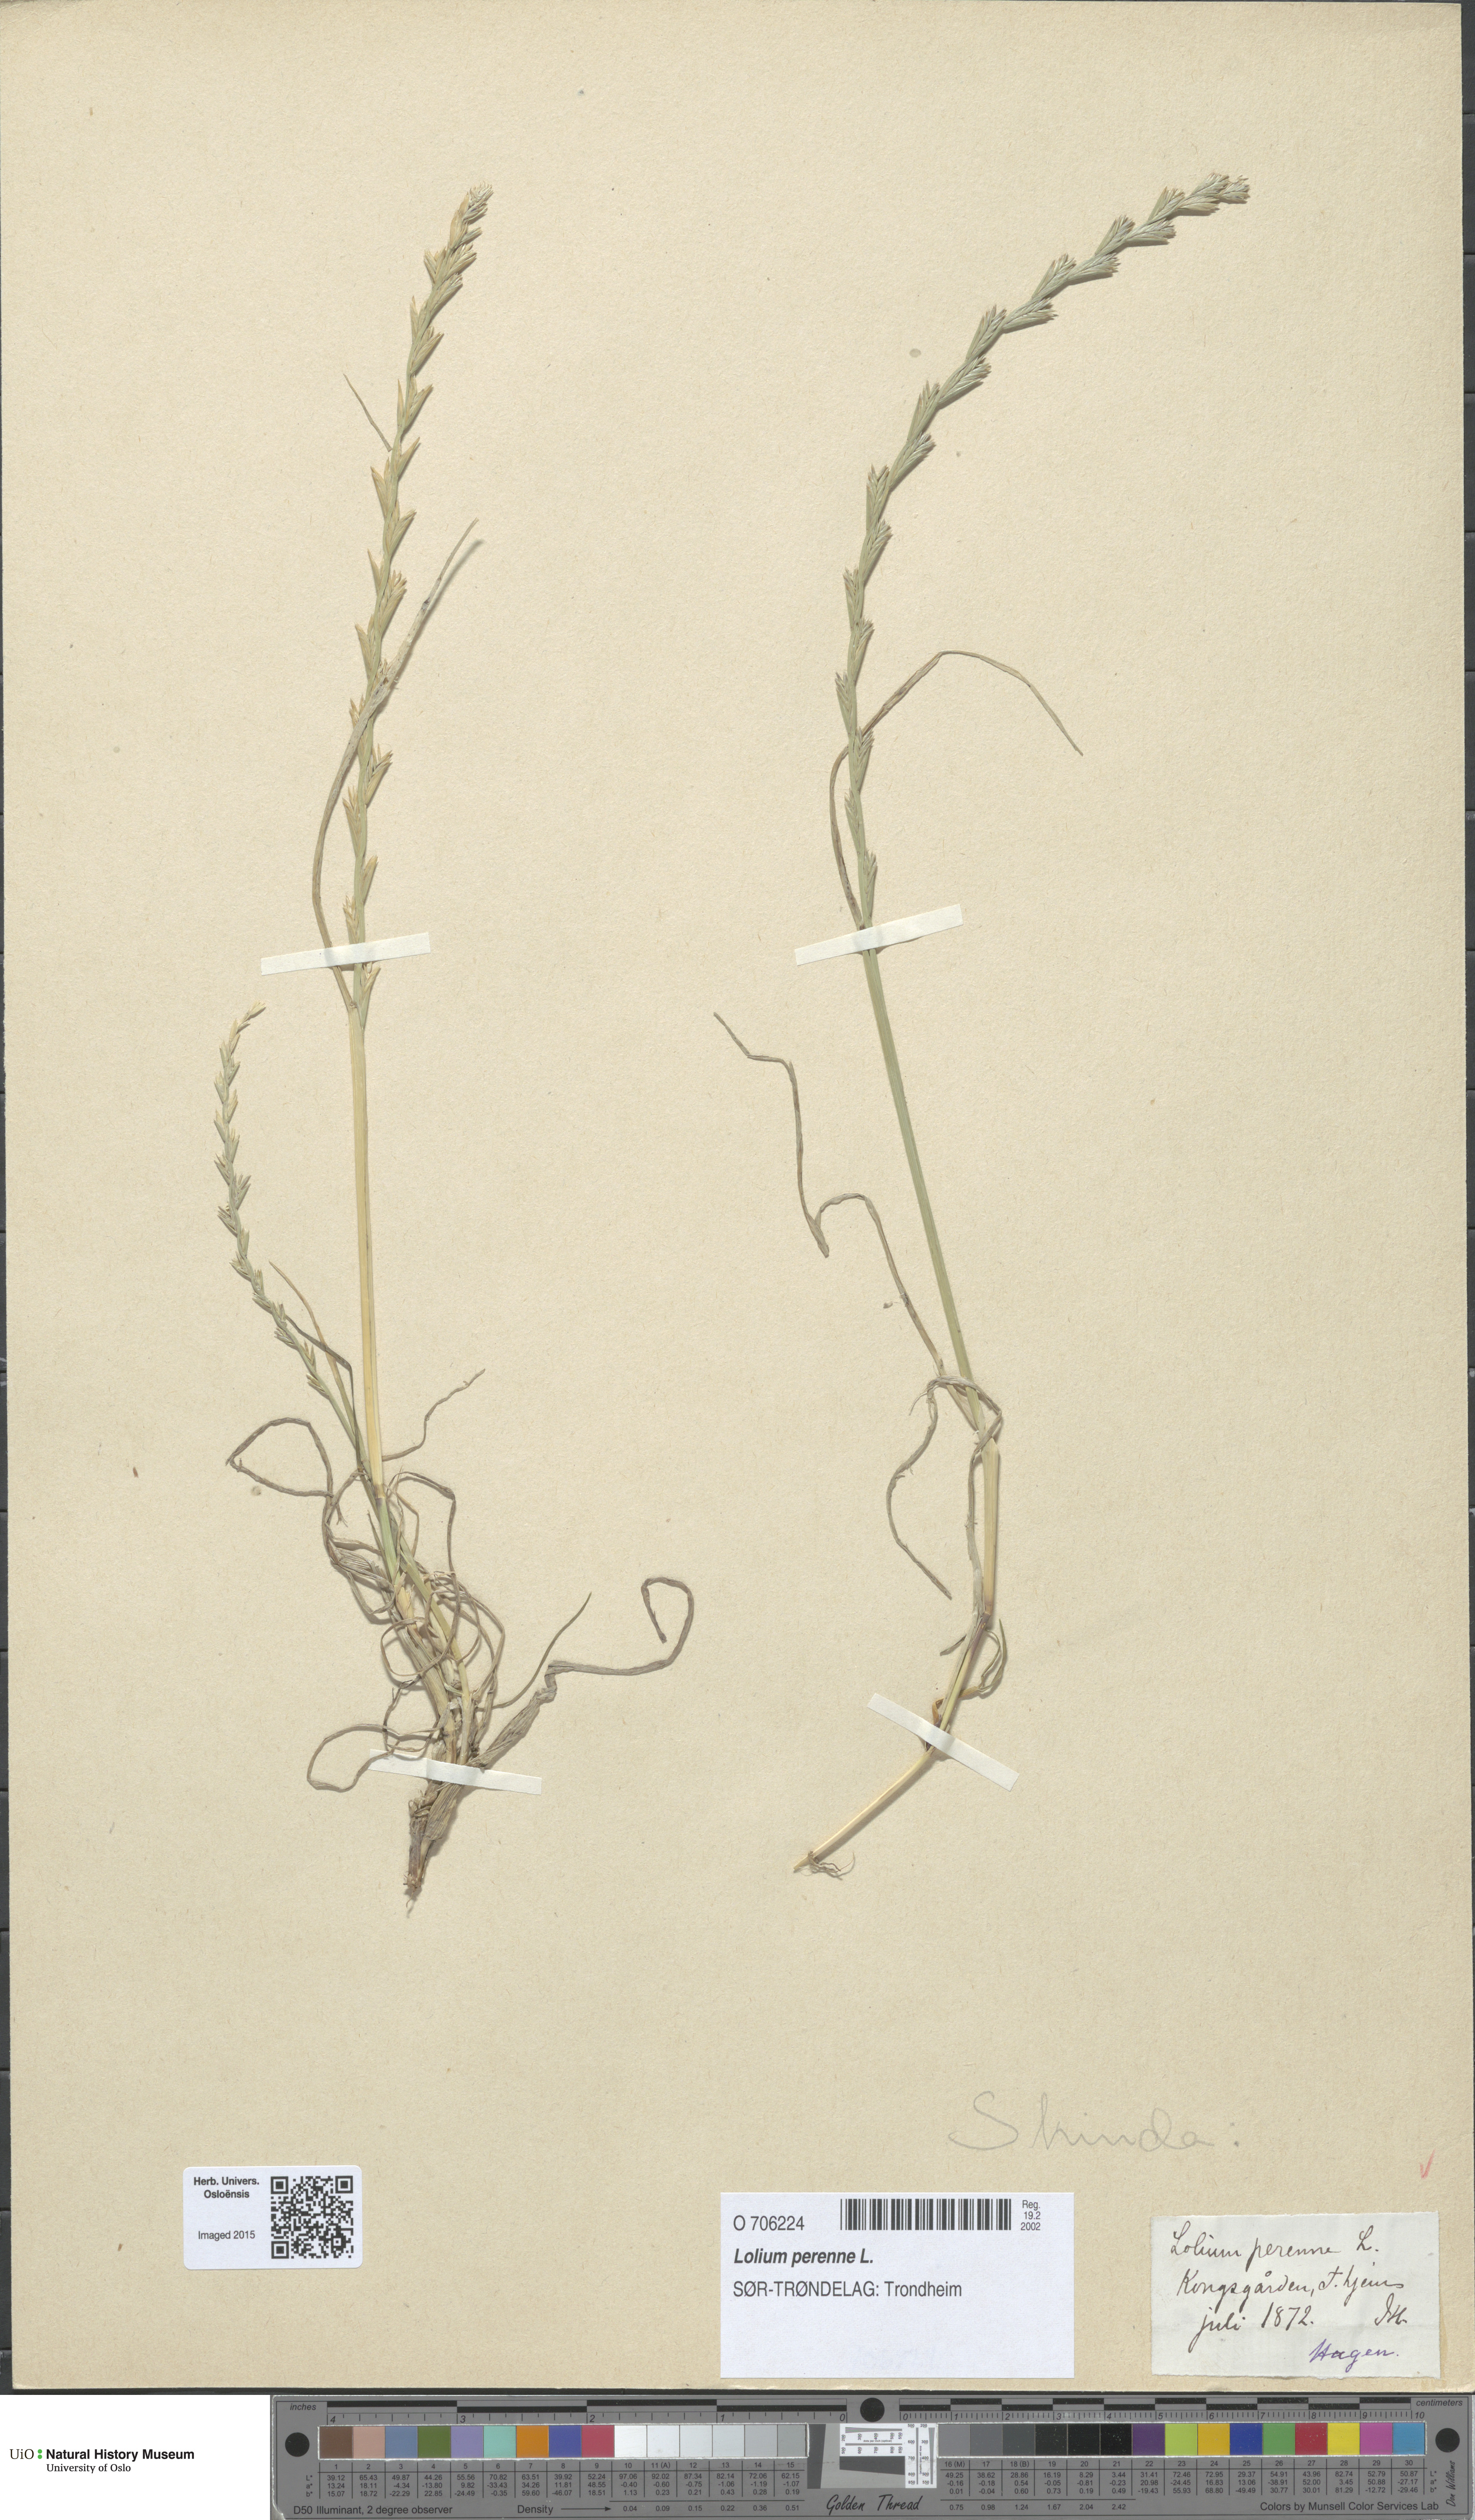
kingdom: Plantae
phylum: Tracheophyta
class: Liliopsida
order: Poales
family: Poaceae
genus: Lolium
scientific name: Lolium perenne
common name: Perennial ryegrass
